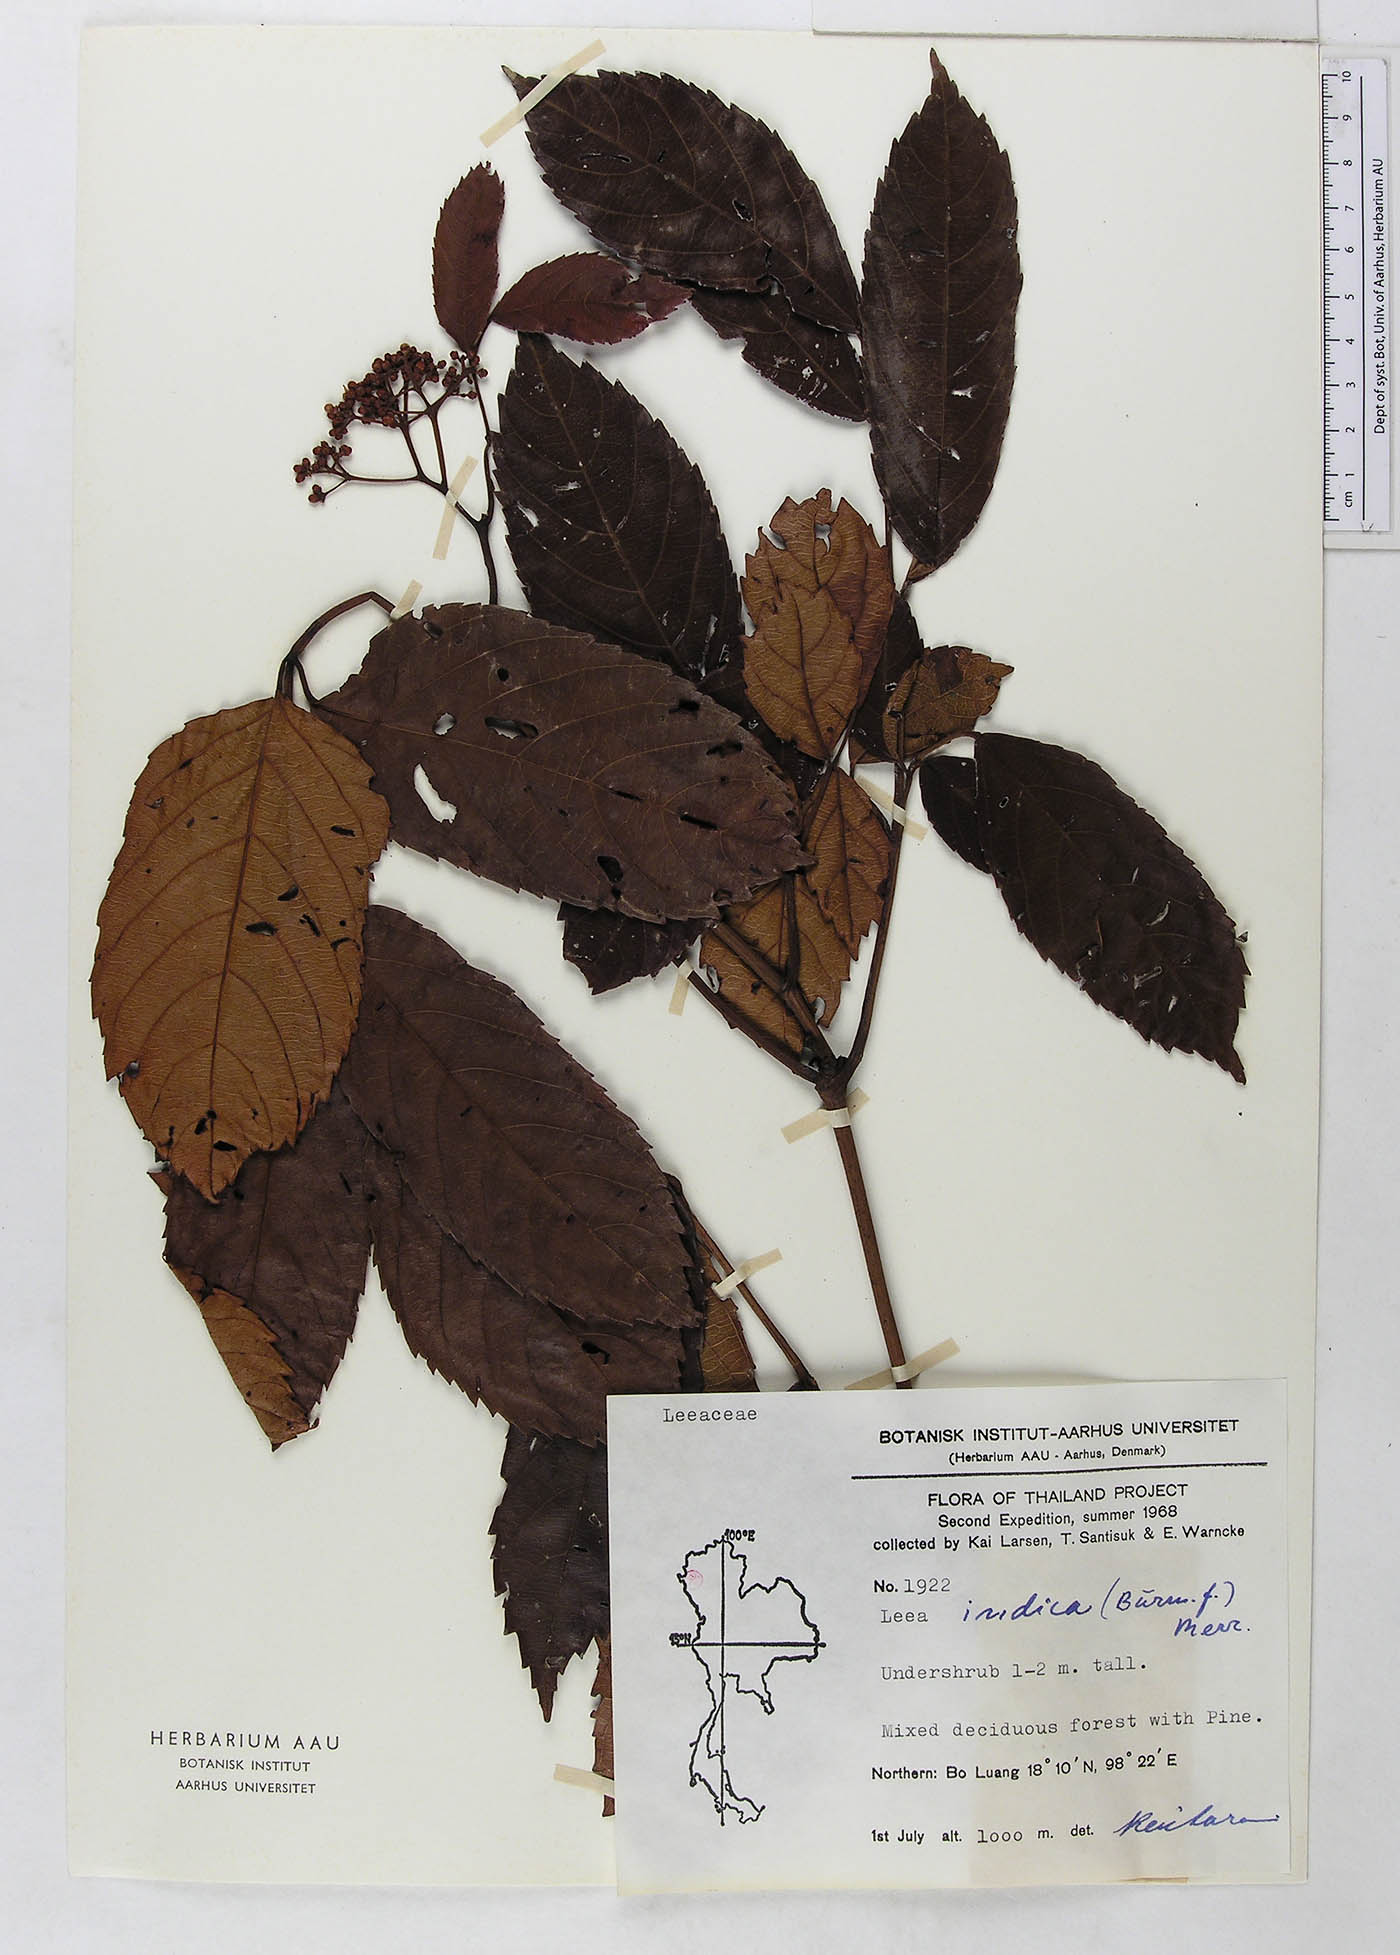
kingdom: Plantae
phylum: Tracheophyta
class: Magnoliopsida
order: Vitales
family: Vitaceae
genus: Leea
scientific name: Leea indica
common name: Bandicoot-berry
